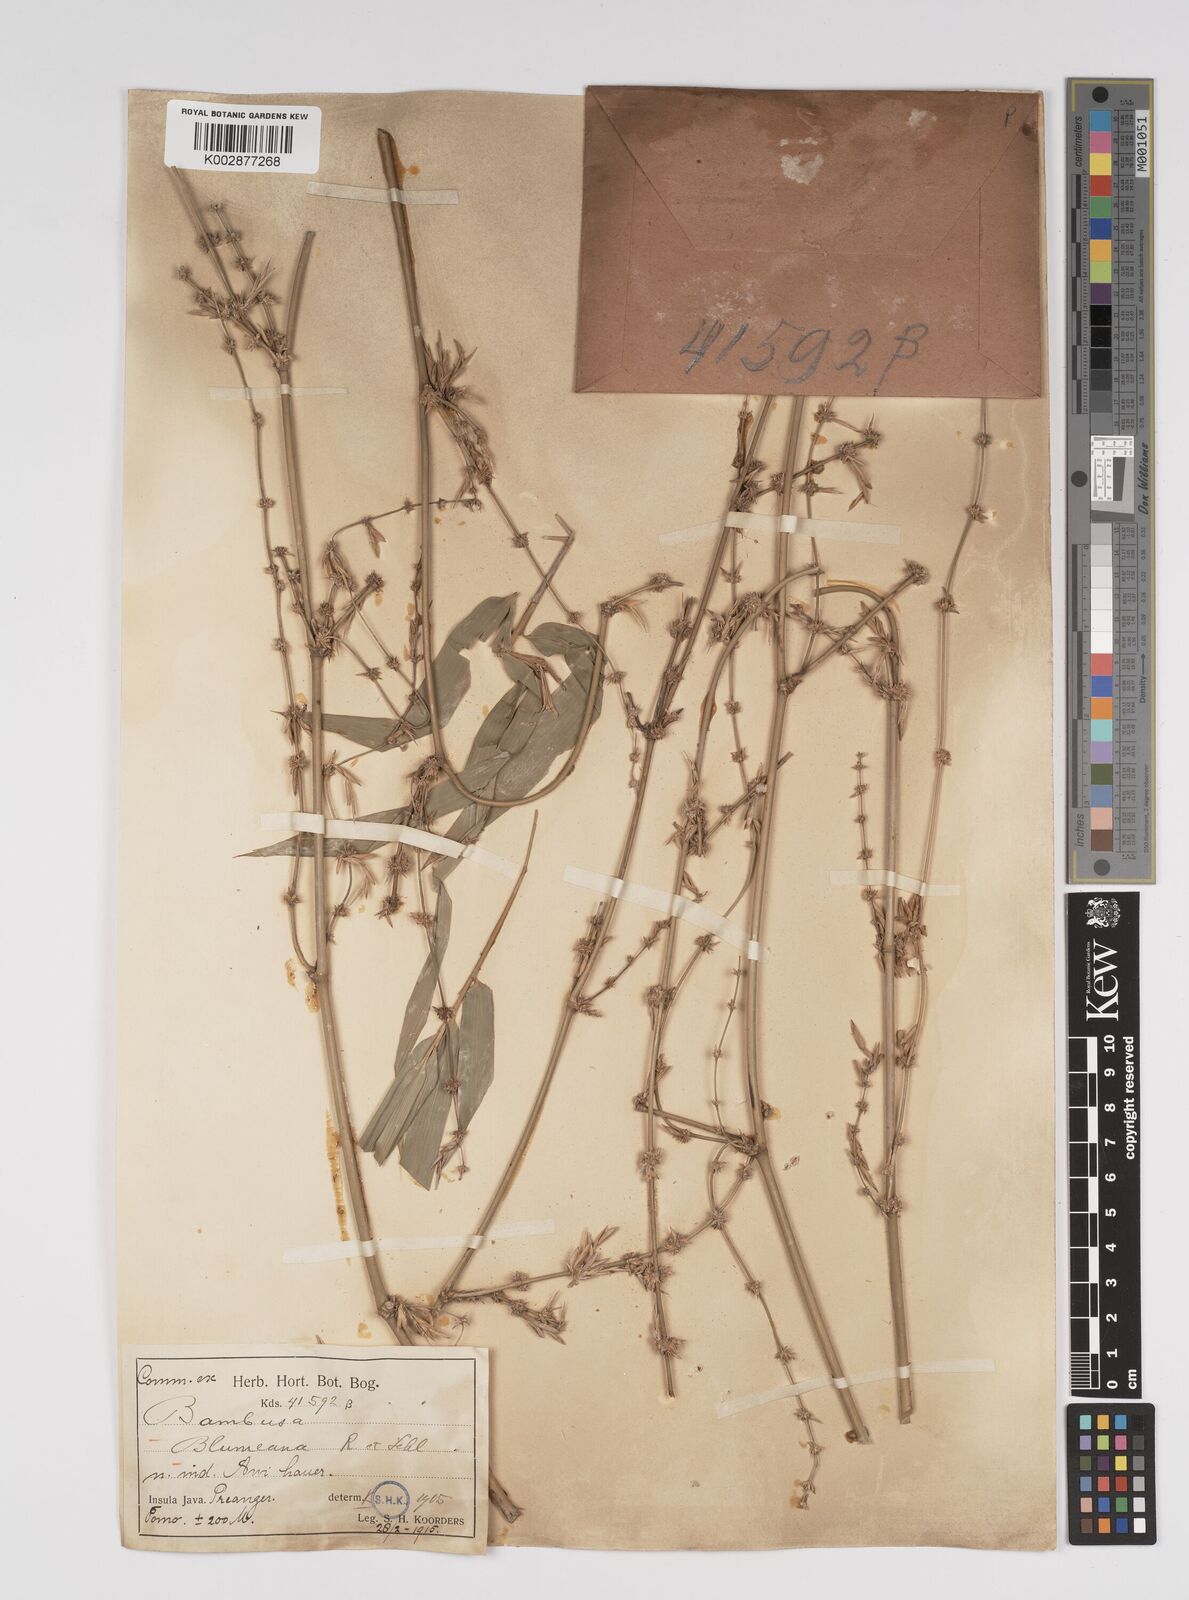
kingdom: Plantae
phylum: Tracheophyta
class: Liliopsida
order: Poales
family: Poaceae
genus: Bambusa
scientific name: Bambusa spinosa
